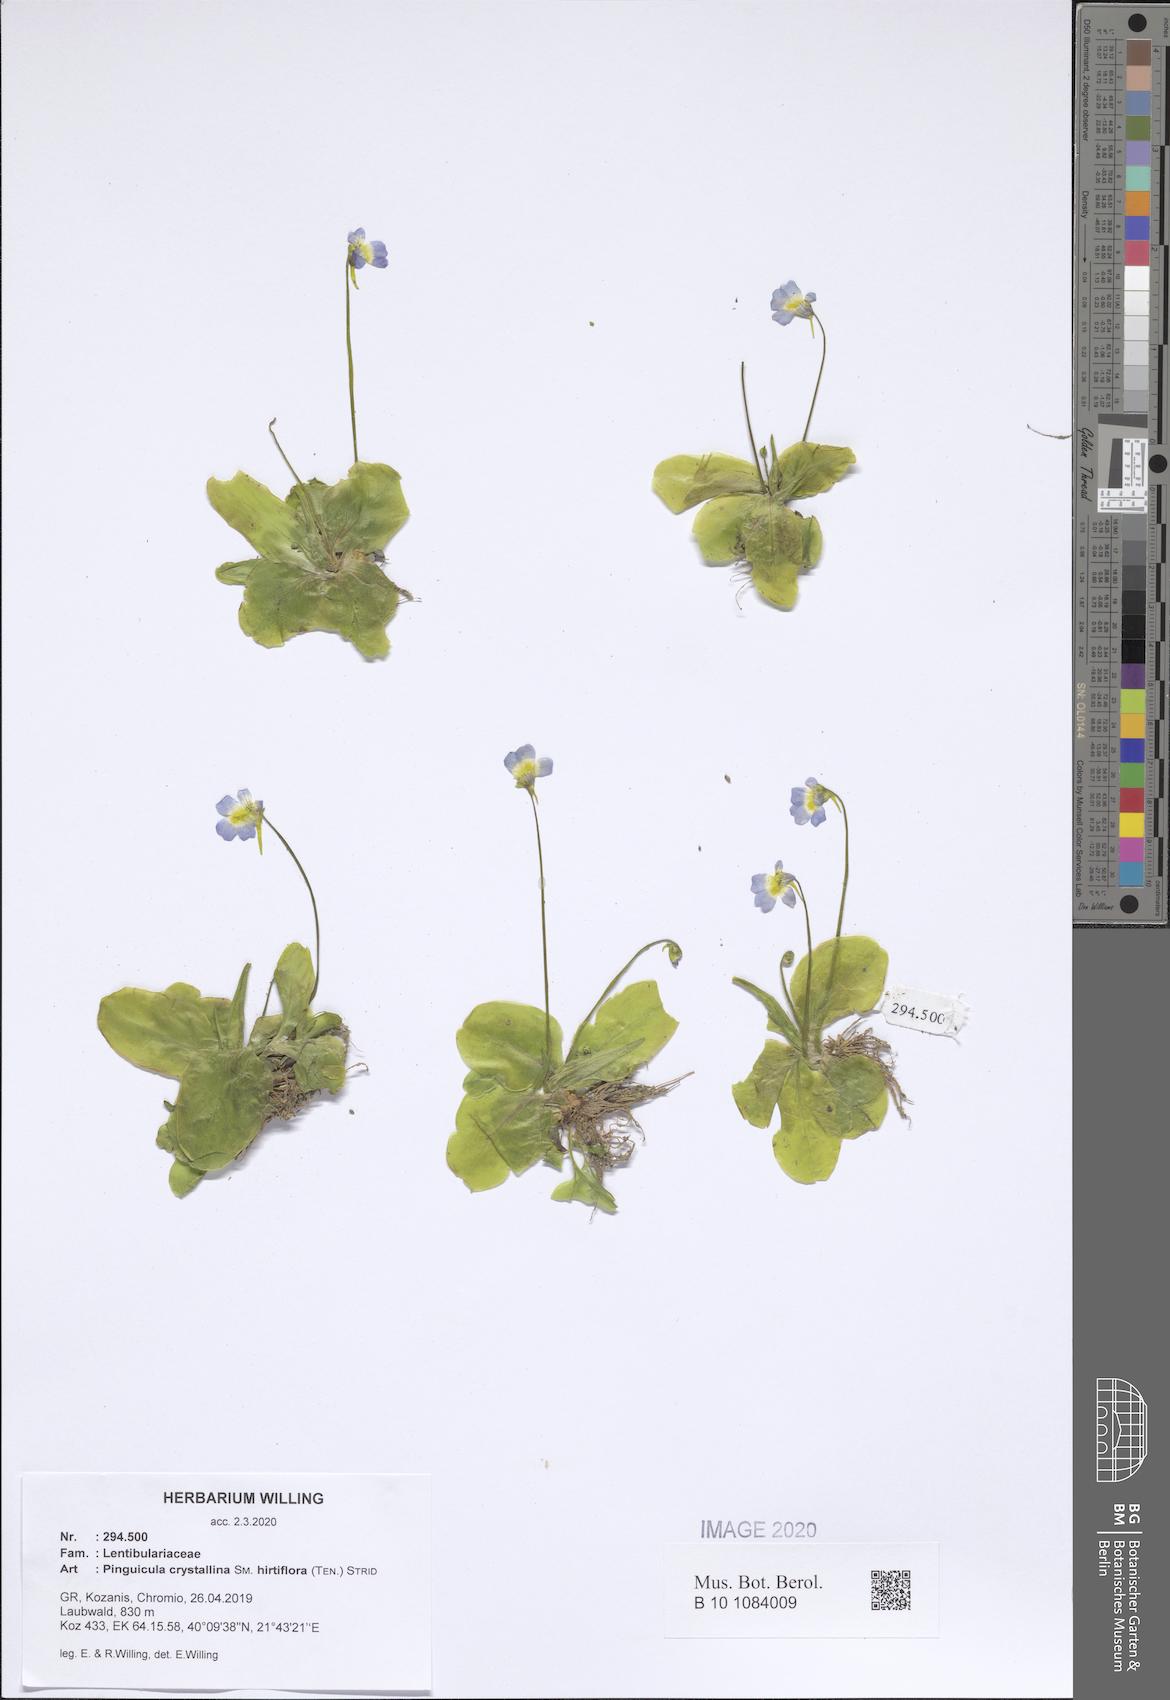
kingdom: Plantae
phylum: Tracheophyta
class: Magnoliopsida
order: Lamiales
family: Lentibulariaceae
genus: Pinguicula
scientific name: Pinguicula crystallina
